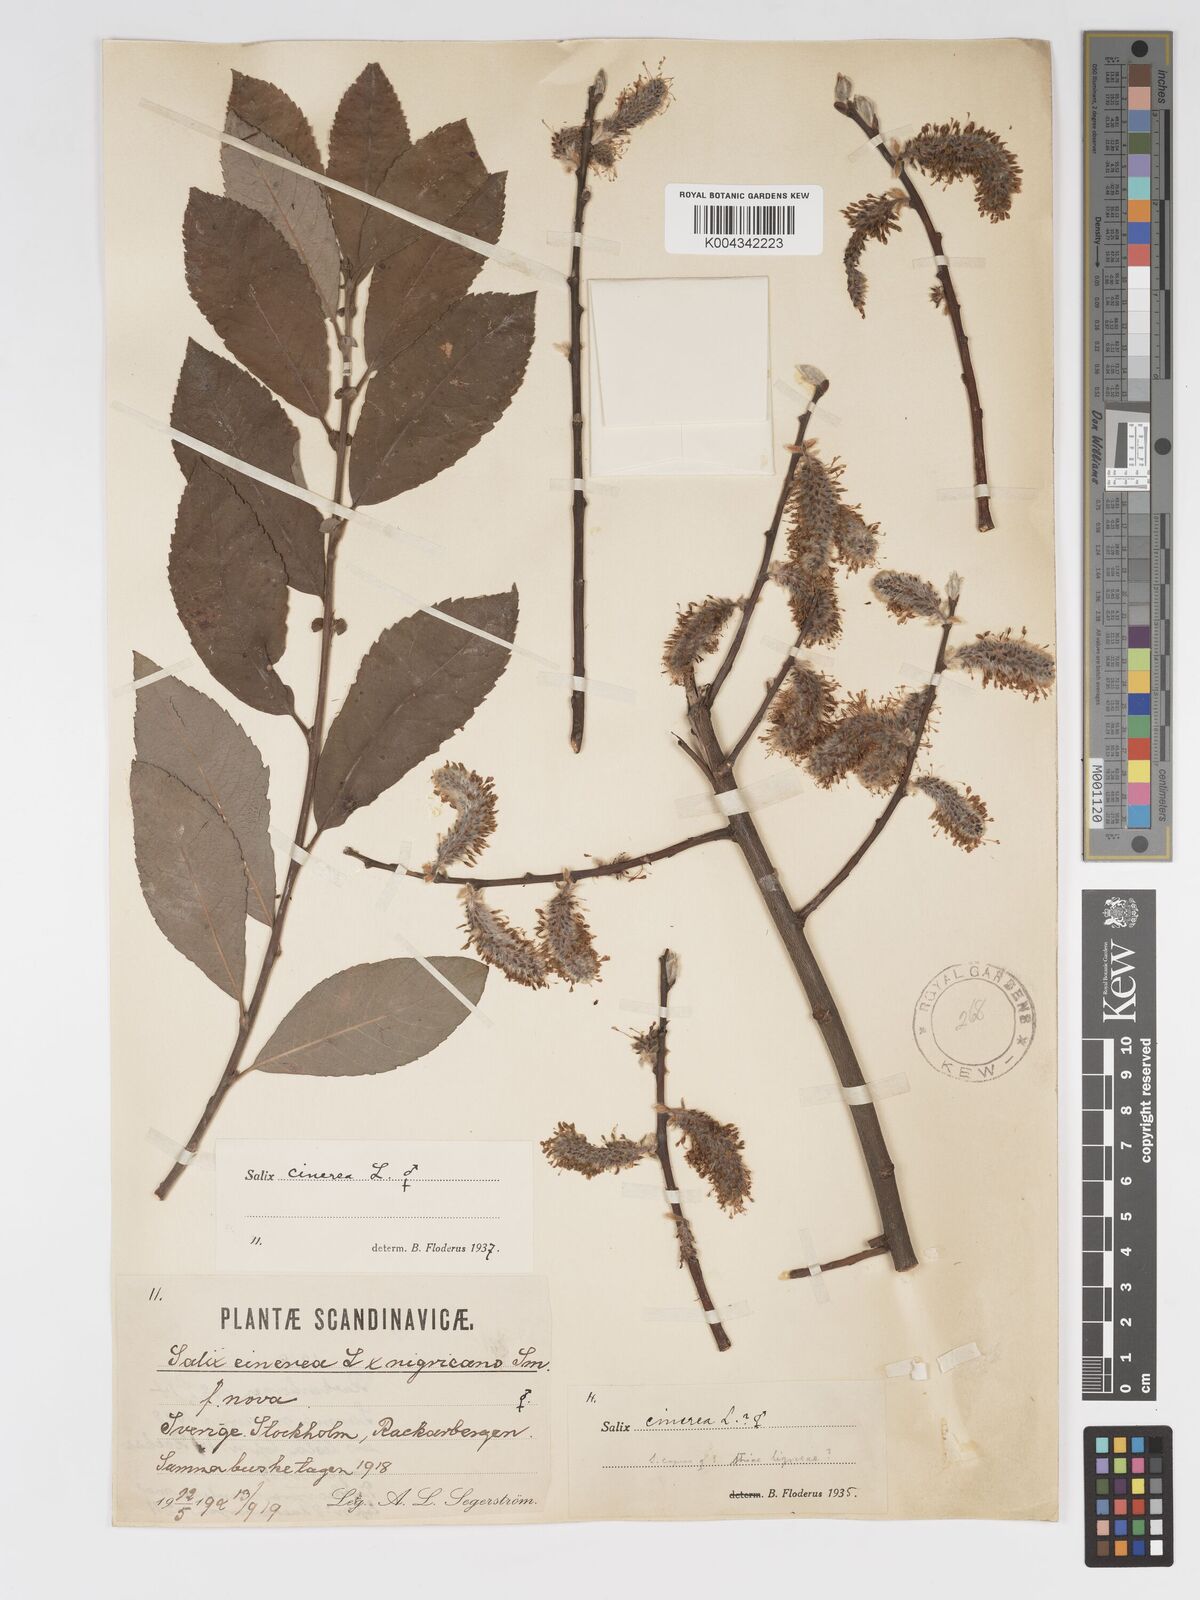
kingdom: Plantae
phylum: Tracheophyta
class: Magnoliopsida
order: Malpighiales
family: Salicaceae
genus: Salix
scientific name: Salix
